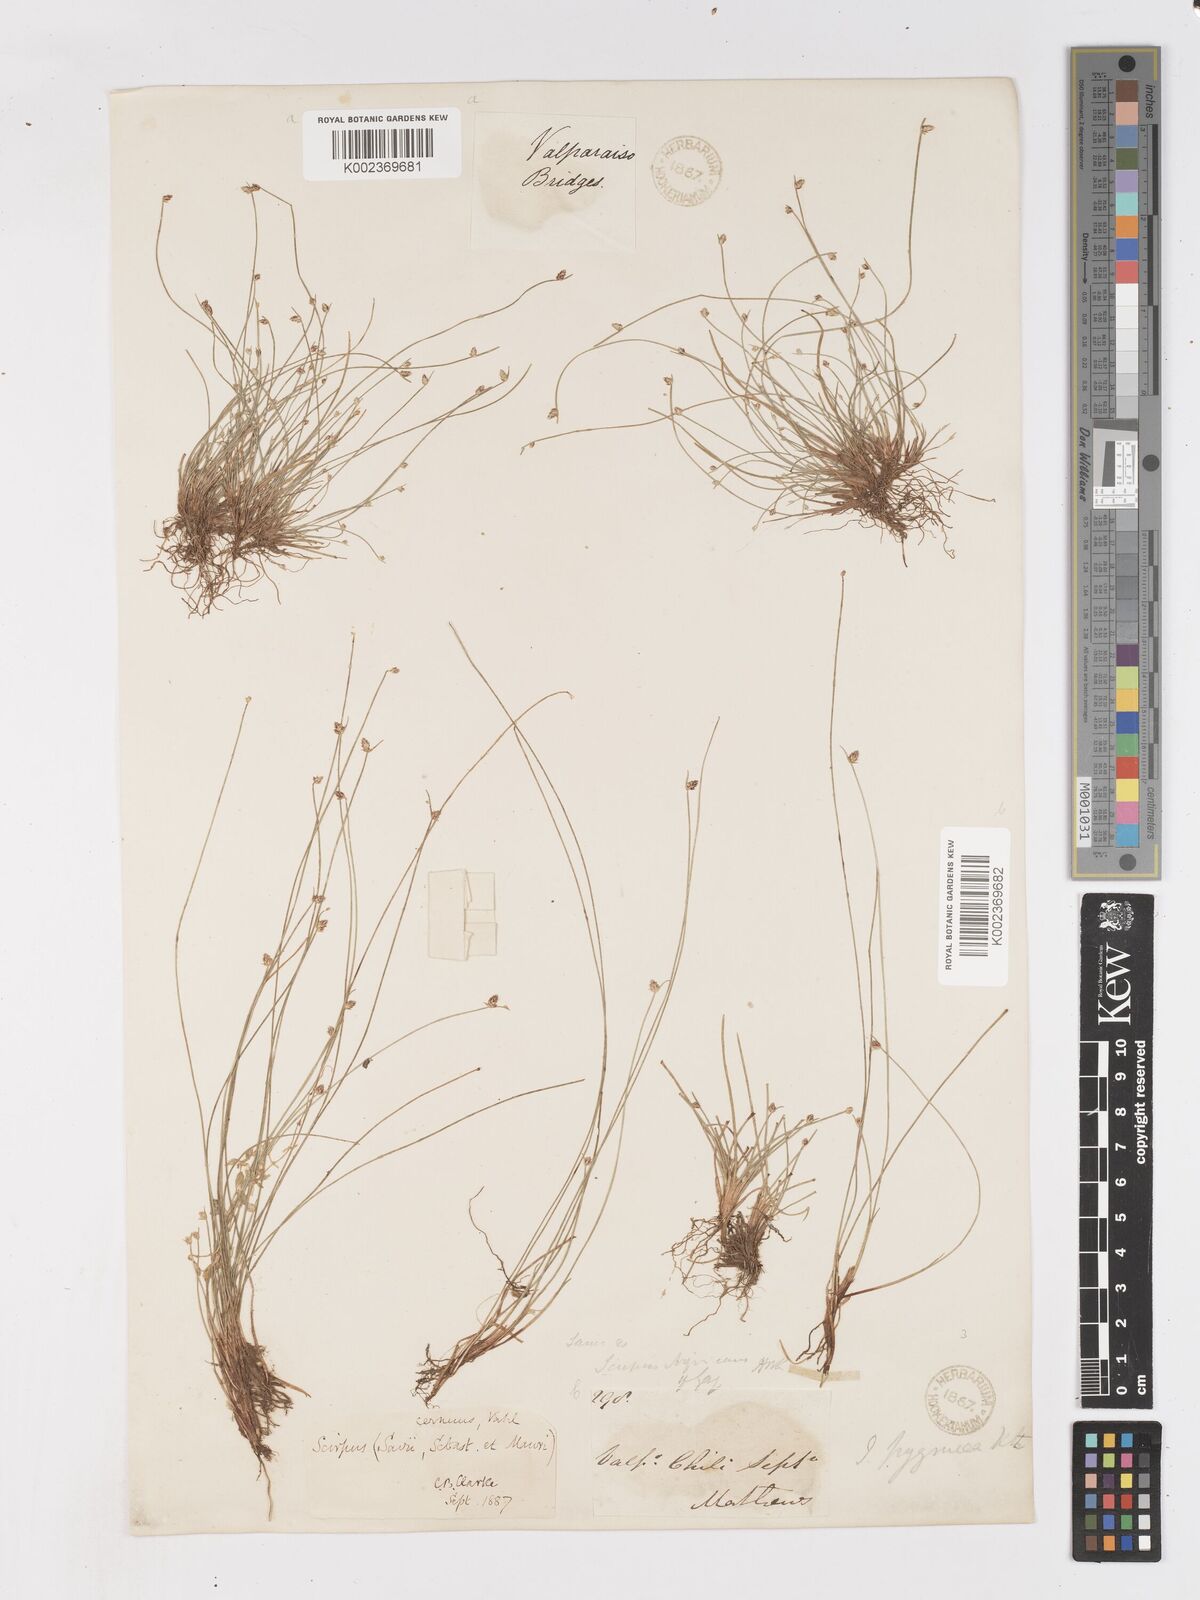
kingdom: Plantae
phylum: Tracheophyta
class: Liliopsida
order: Poales
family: Cyperaceae
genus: Isolepis
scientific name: Isolepis cernua
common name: Slender club-rush
